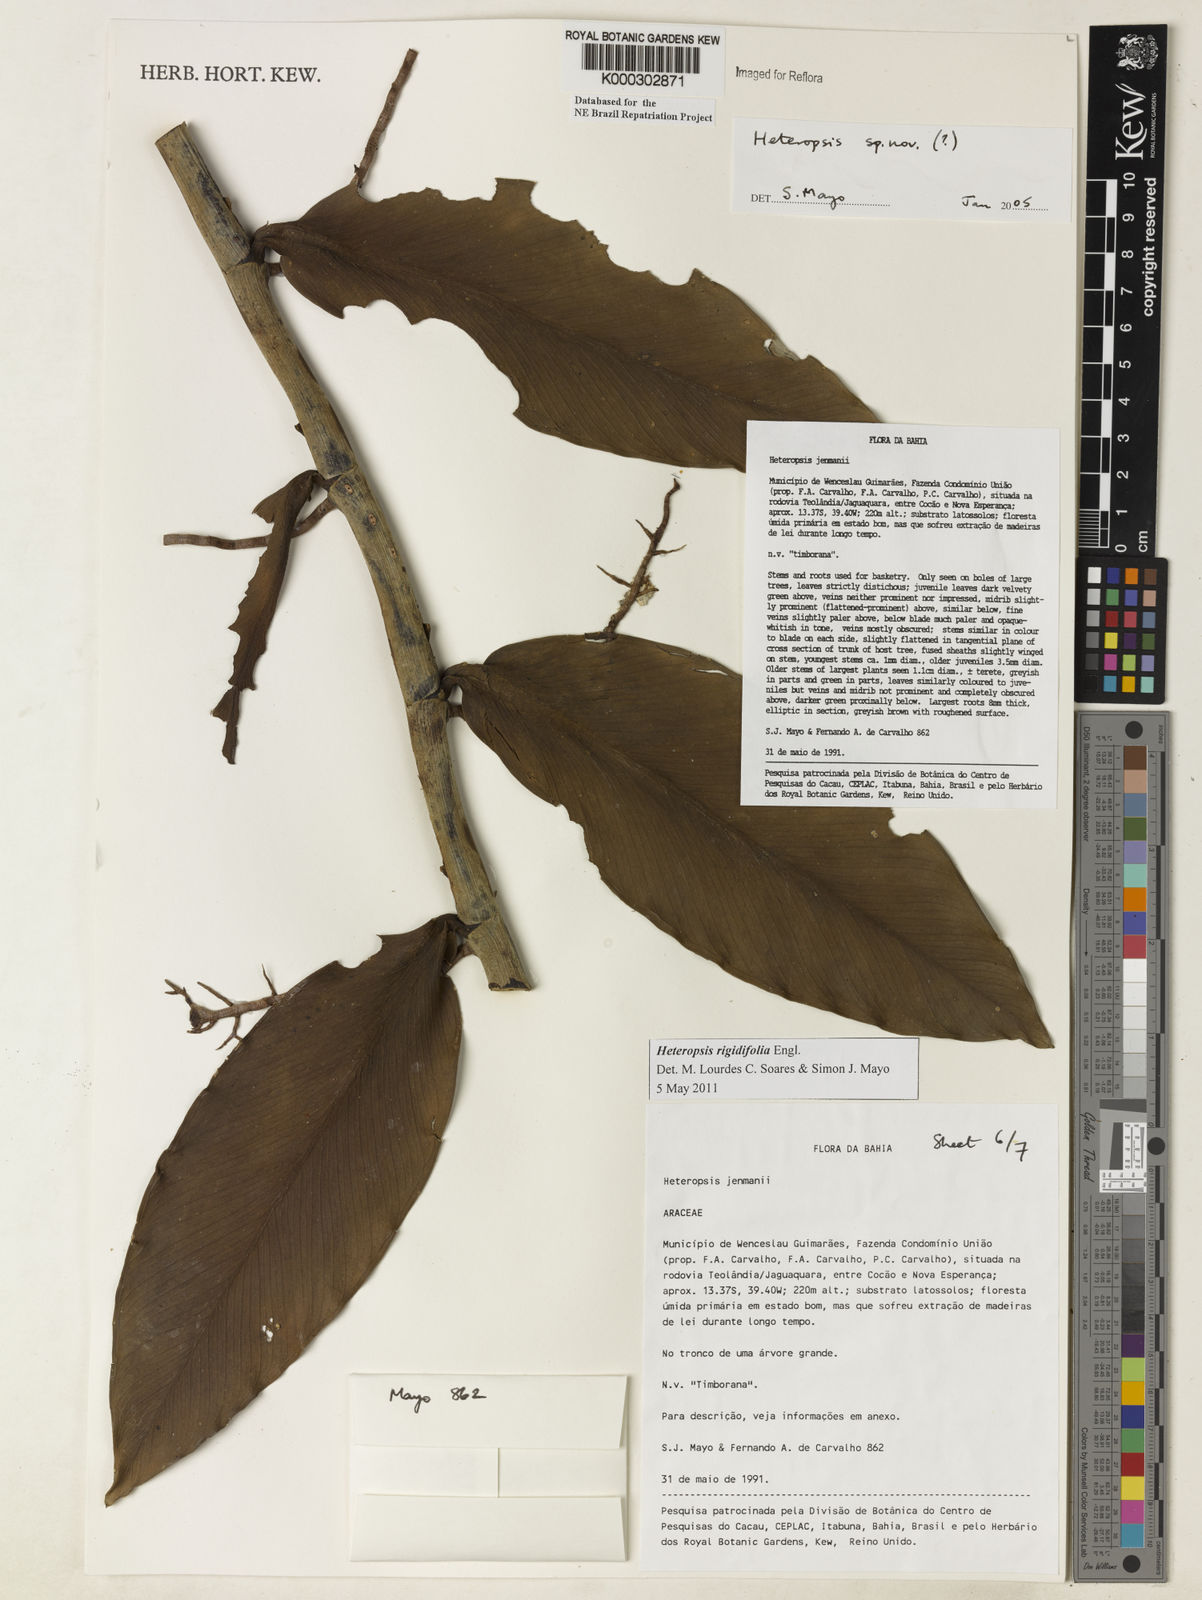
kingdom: Plantae
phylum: Tracheophyta
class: Liliopsida
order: Alismatales
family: Araceae
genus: Heteropsis
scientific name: Heteropsis
